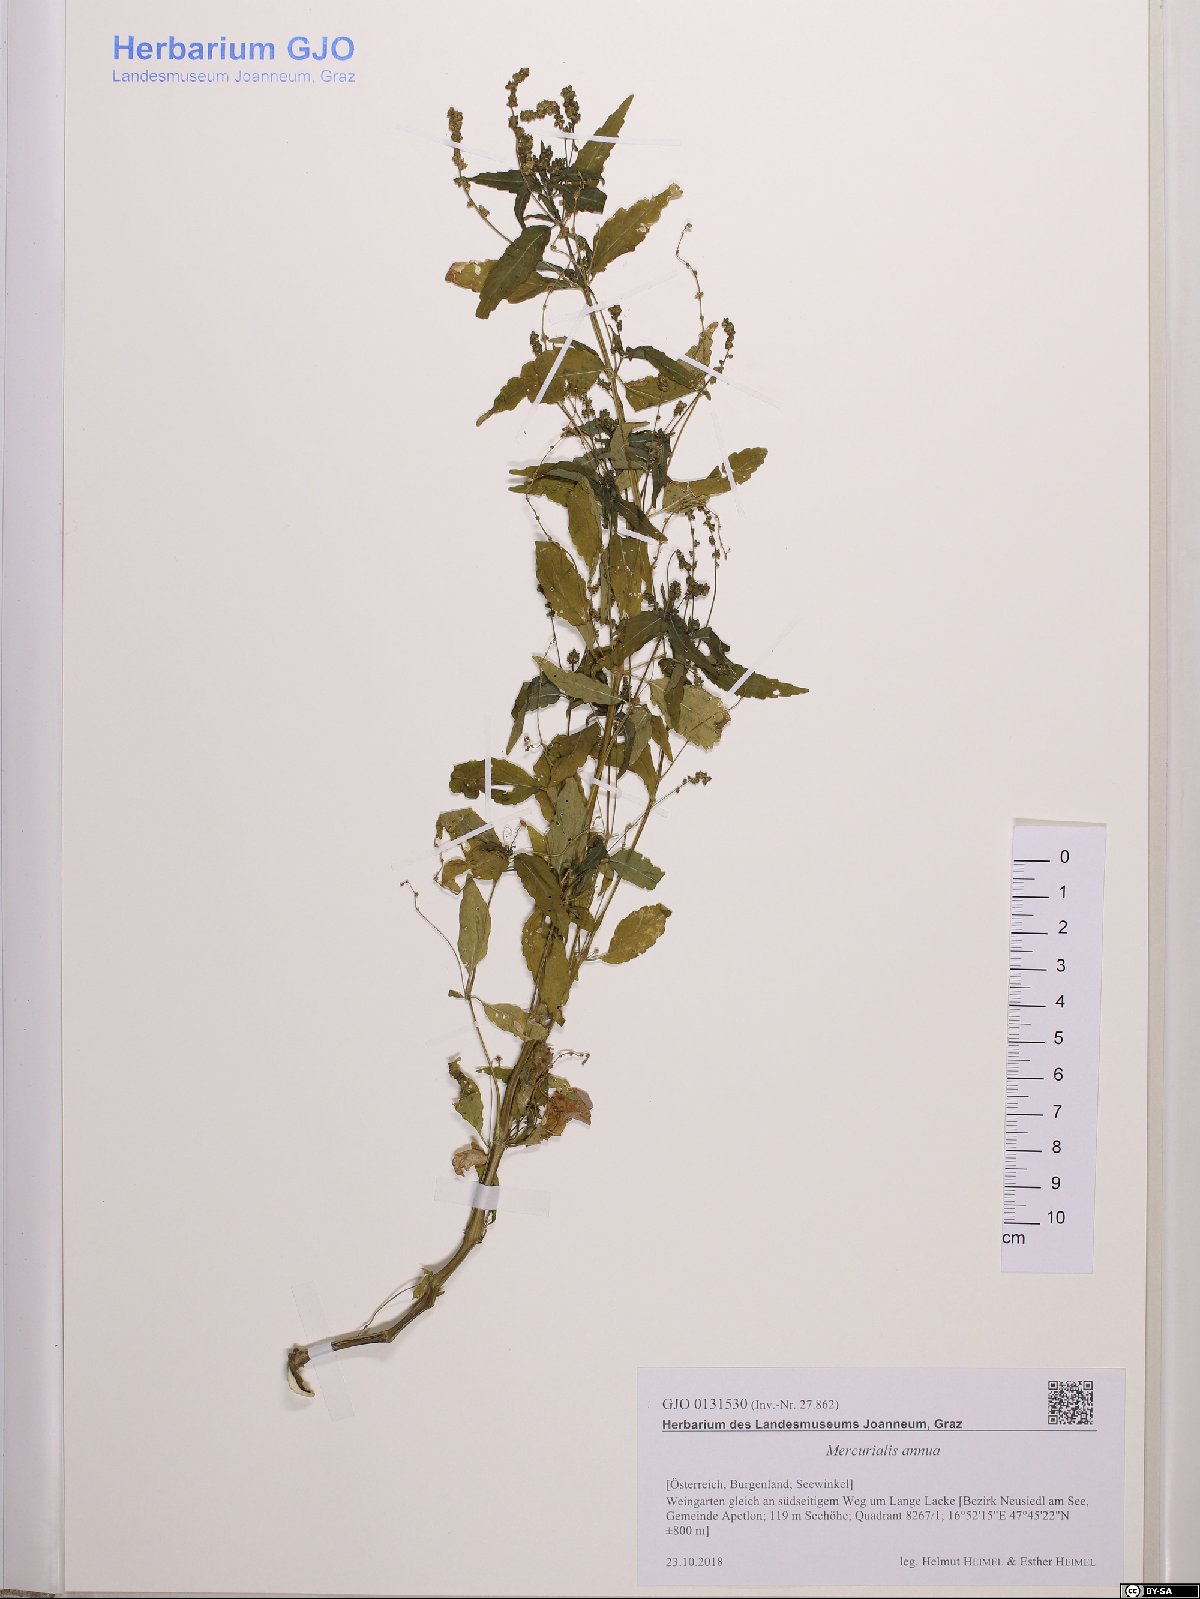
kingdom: Plantae
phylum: Tracheophyta
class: Magnoliopsida
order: Malpighiales
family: Euphorbiaceae
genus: Mercurialis
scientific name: Mercurialis annua
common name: Annual mercury
